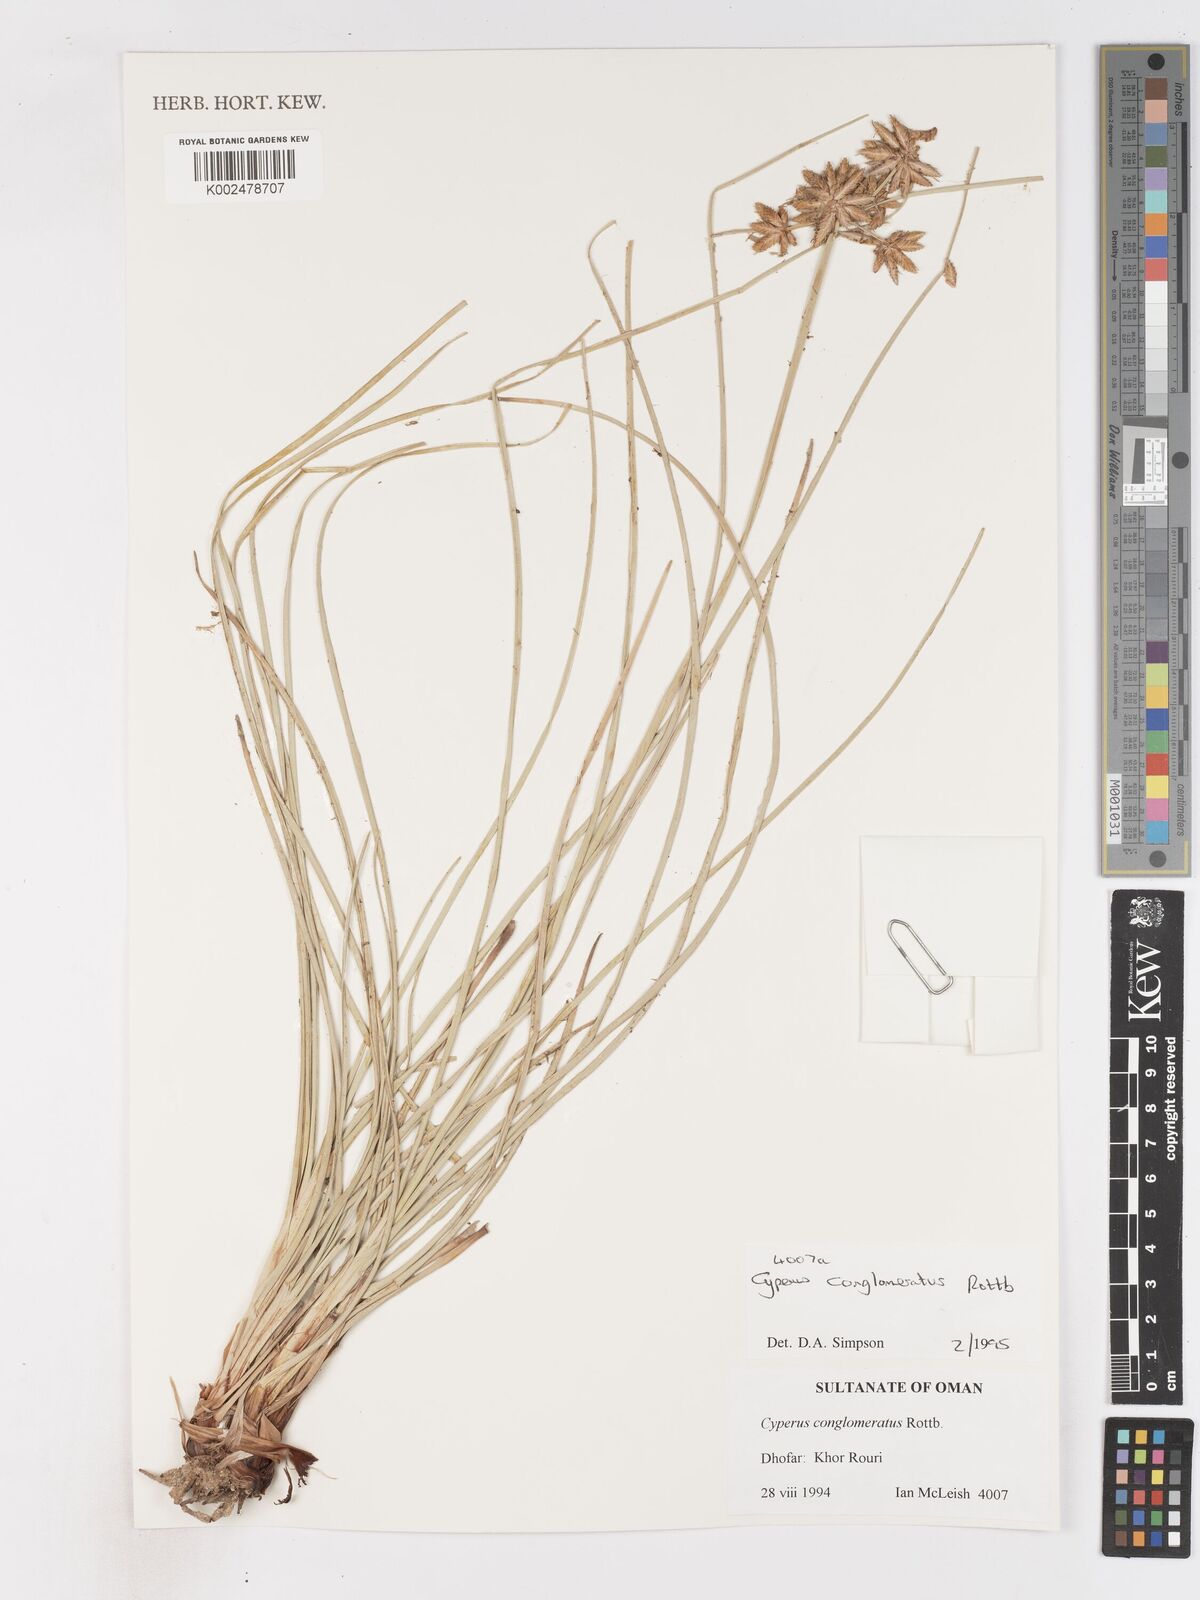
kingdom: Plantae
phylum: Tracheophyta
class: Liliopsida
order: Poales
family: Cyperaceae
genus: Cyperus
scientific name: Cyperus conglomeratus
